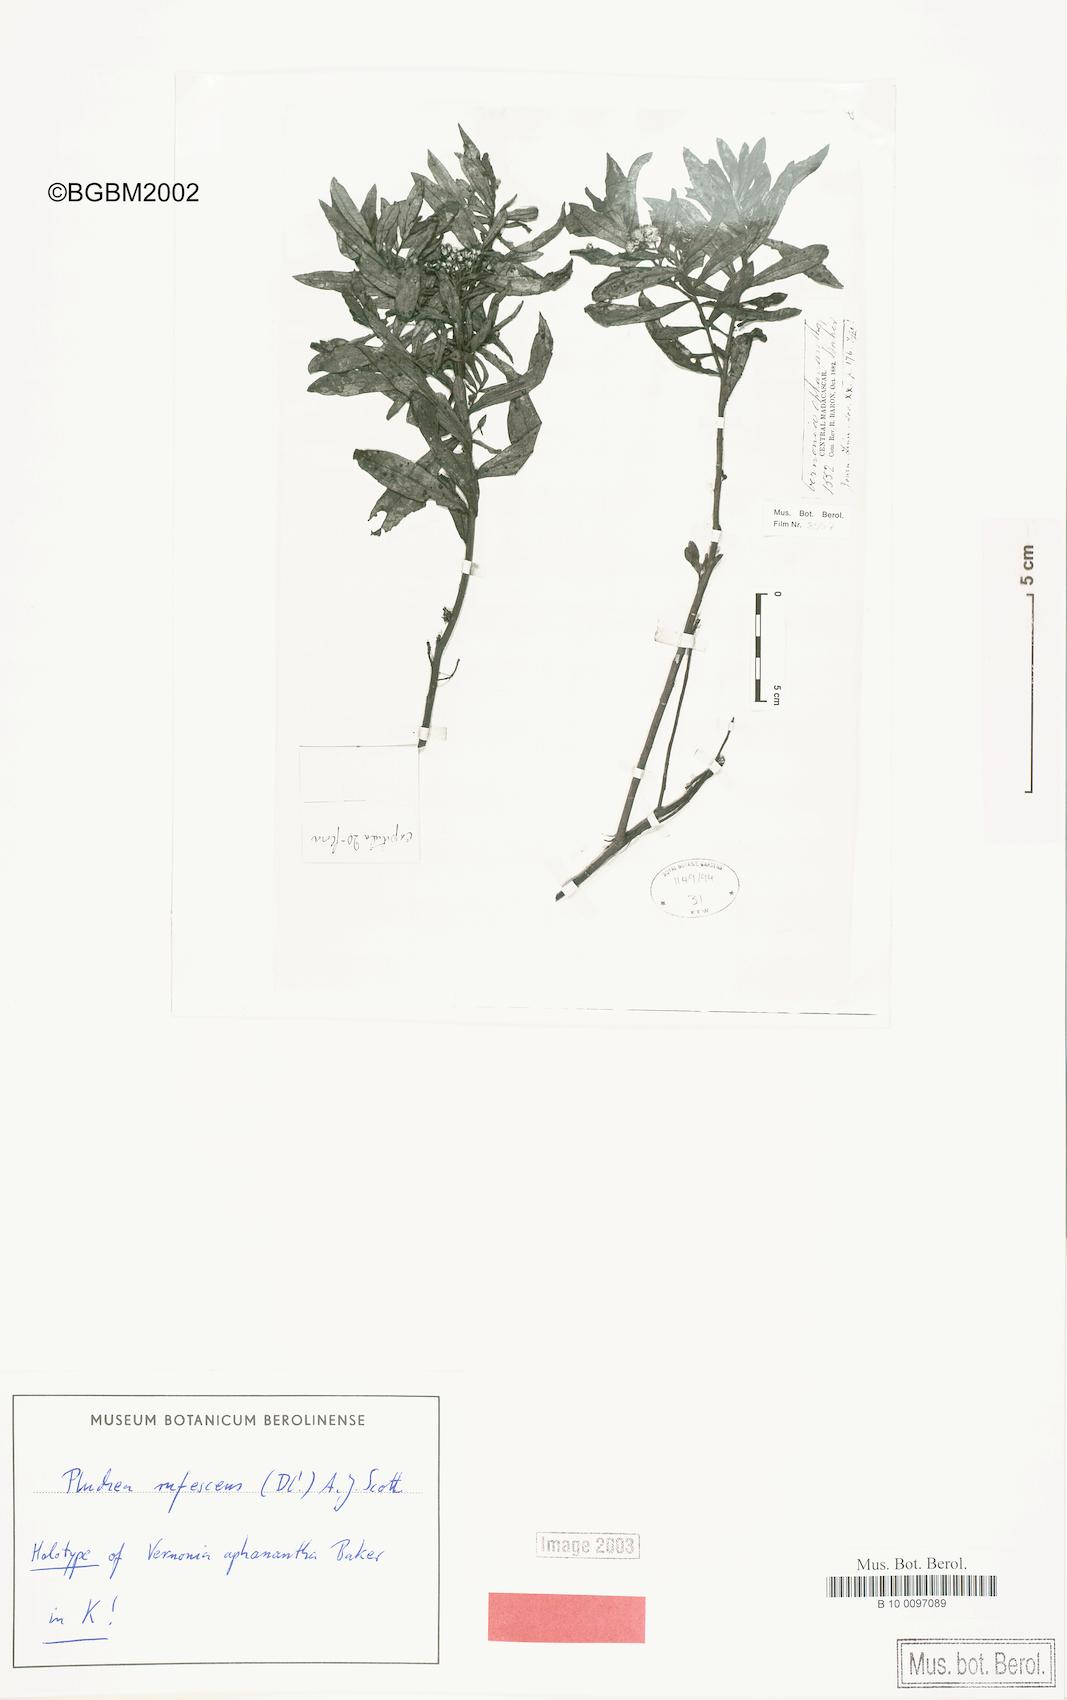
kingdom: Plantae
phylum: Tracheophyta
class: Magnoliopsida
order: Asterales
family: Asteraceae
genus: Pluchea
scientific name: Pluchea rufescens
